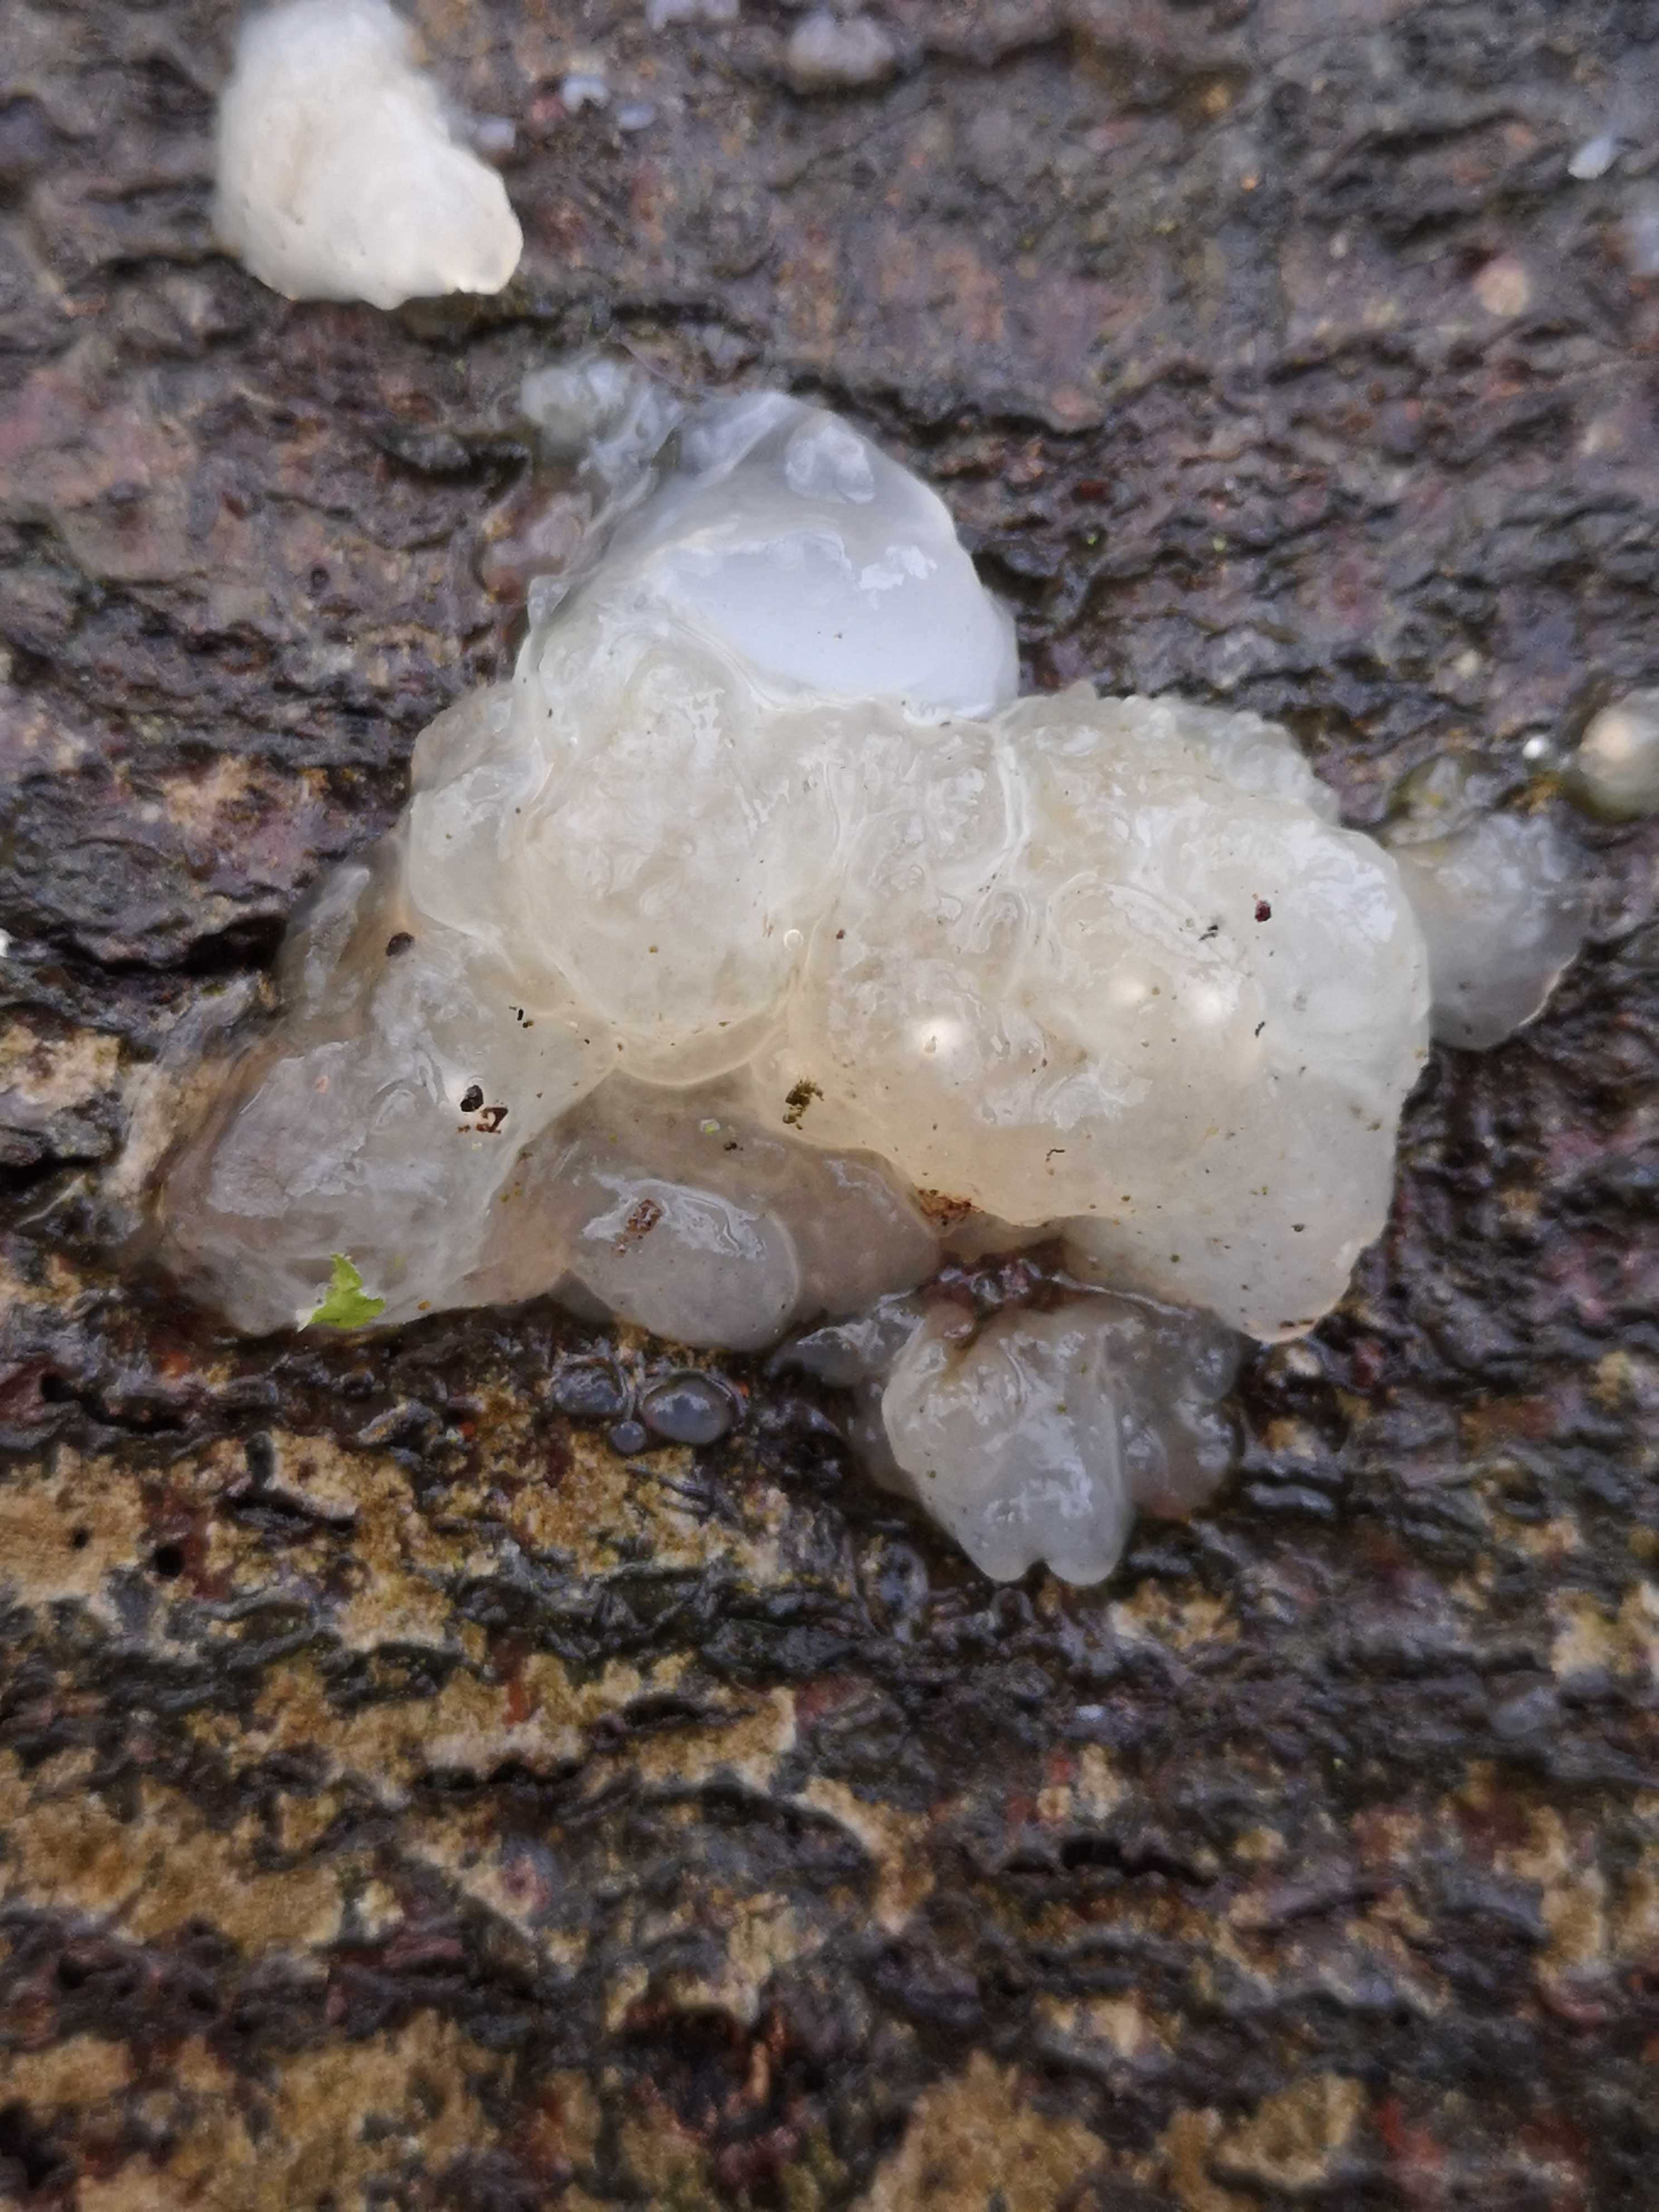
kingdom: Fungi
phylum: Basidiomycota
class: Agaricomycetes
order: Auriculariales
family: Hyaloriaceae
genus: Myxarium
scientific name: Myxarium nucleatum
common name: klar bævretop
